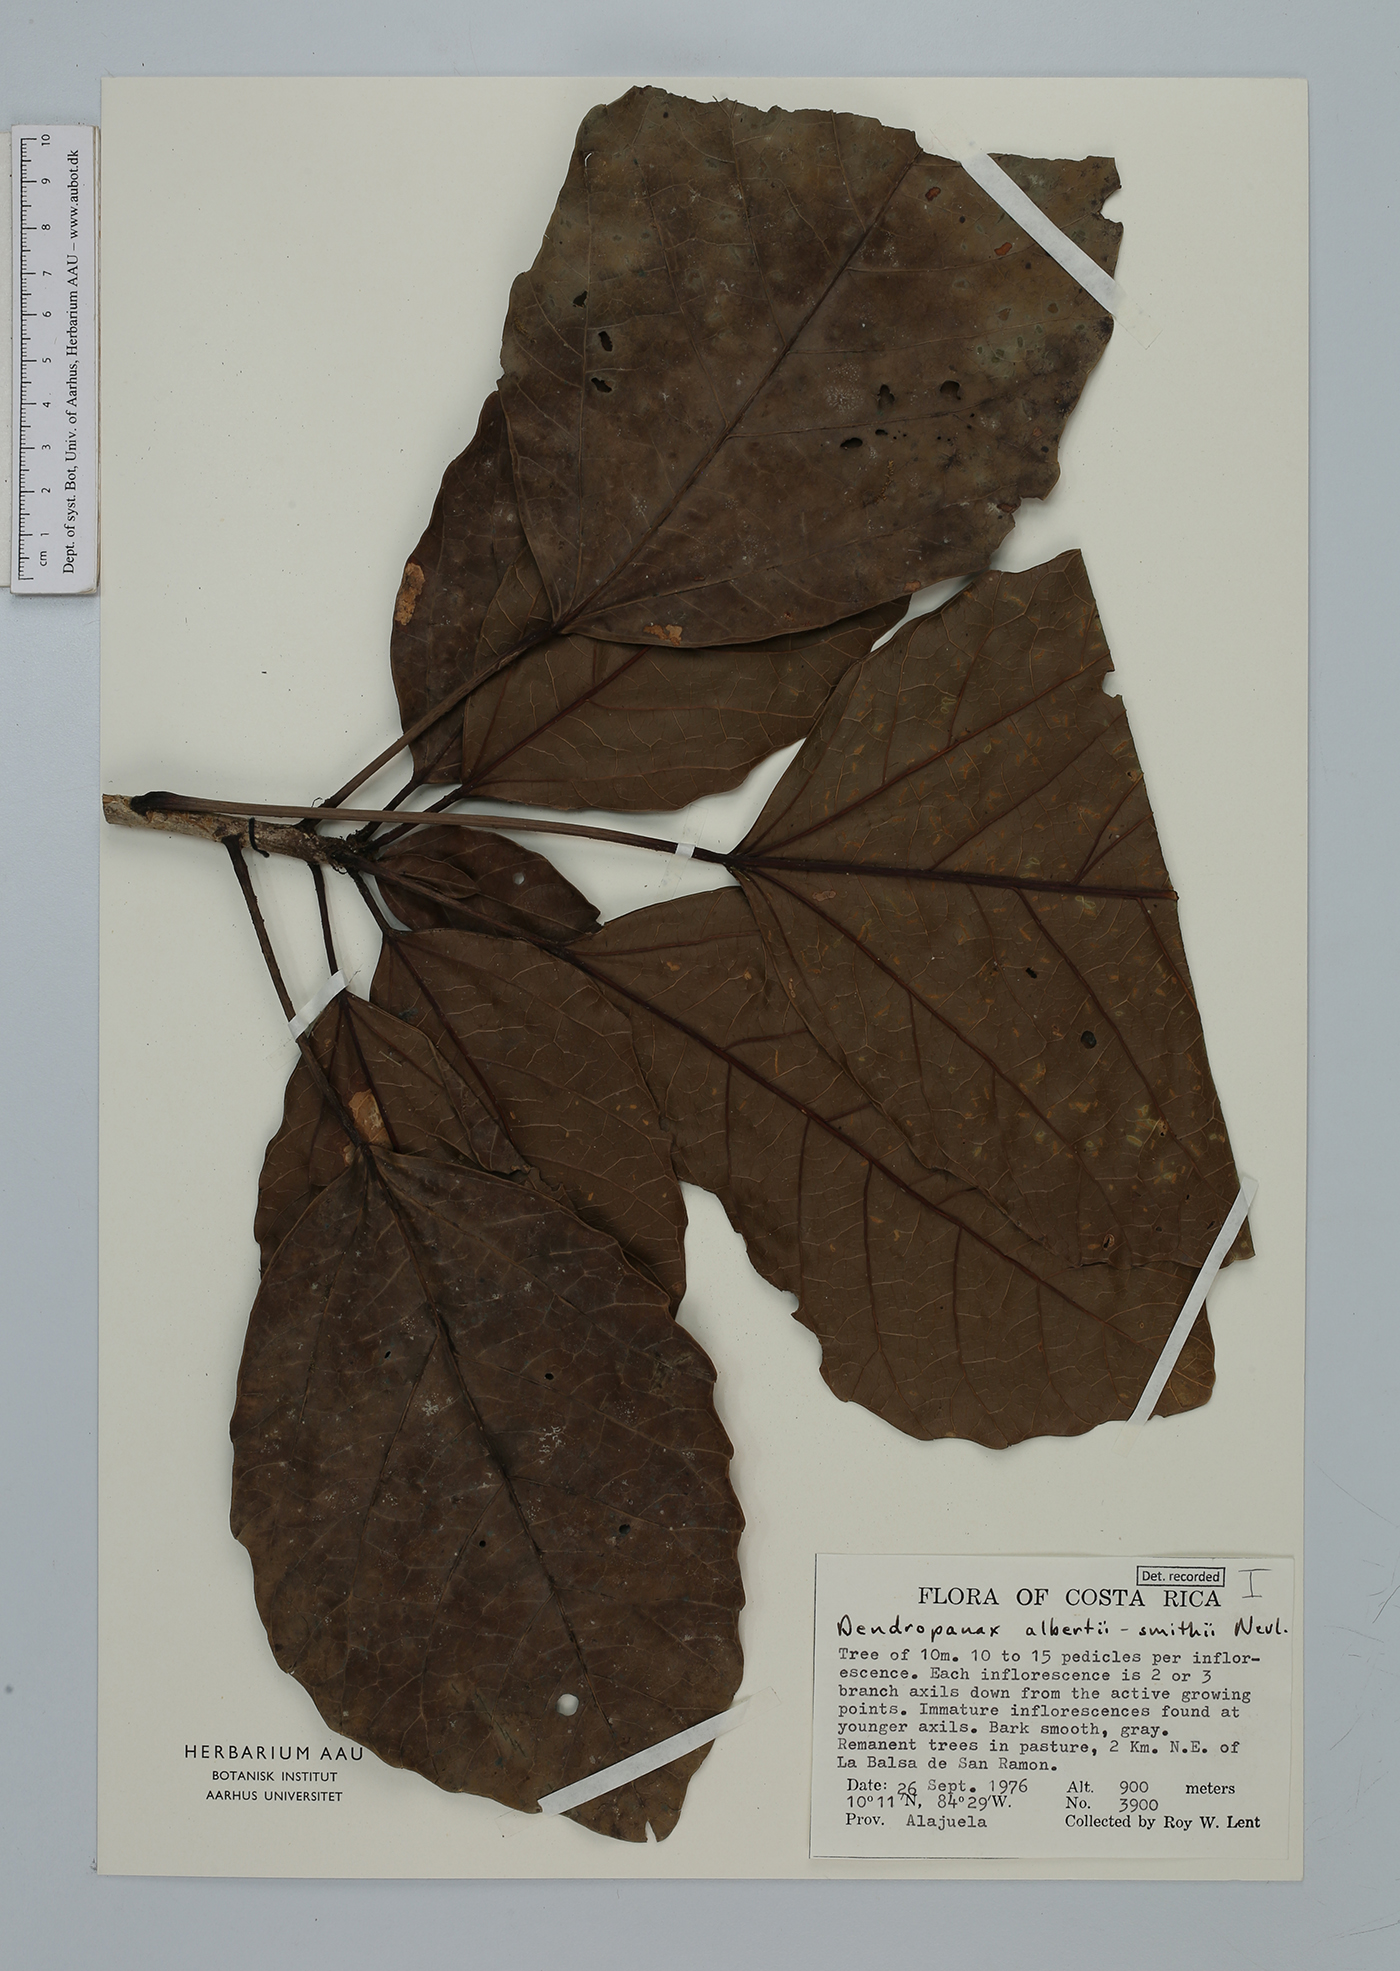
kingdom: Plantae
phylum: Tracheophyta
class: Magnoliopsida
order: Apiales
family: Araliaceae
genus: Dendropanax
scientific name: Dendropanax alberti-smithii
